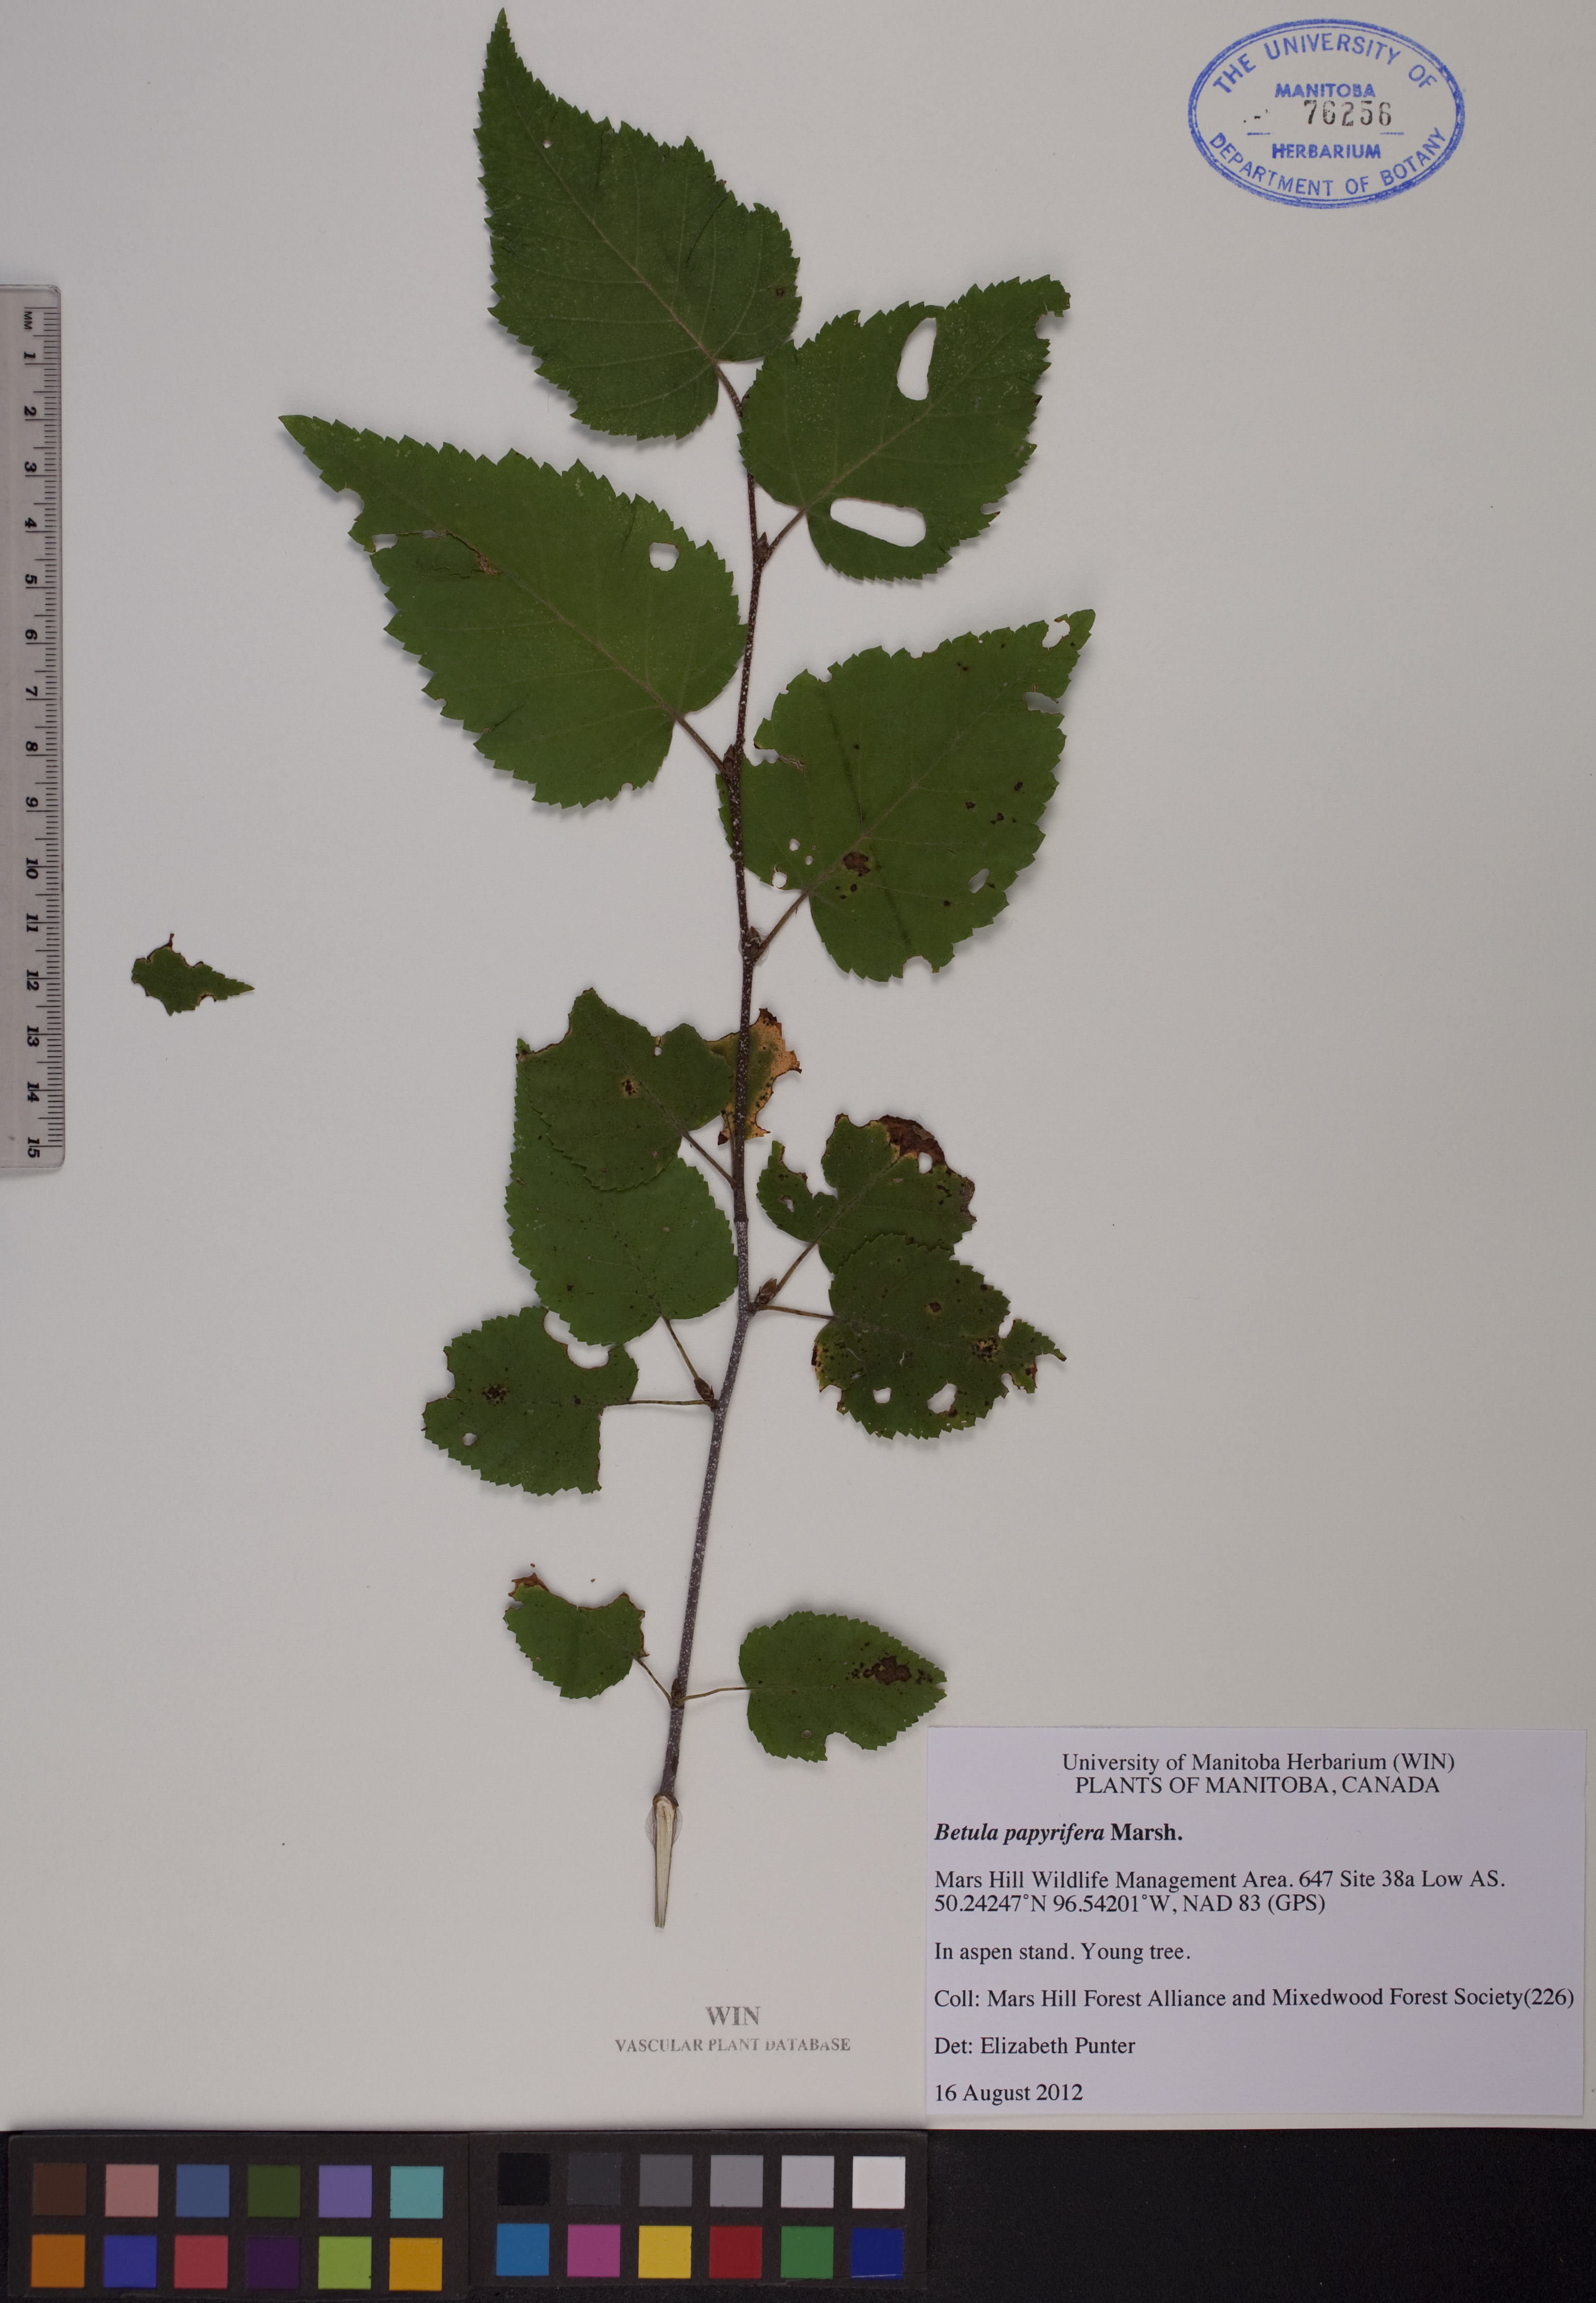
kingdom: Plantae
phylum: Tracheophyta
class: Magnoliopsida
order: Fagales
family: Betulaceae
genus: Betula
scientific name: Betula papyrifera
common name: Paper birch
